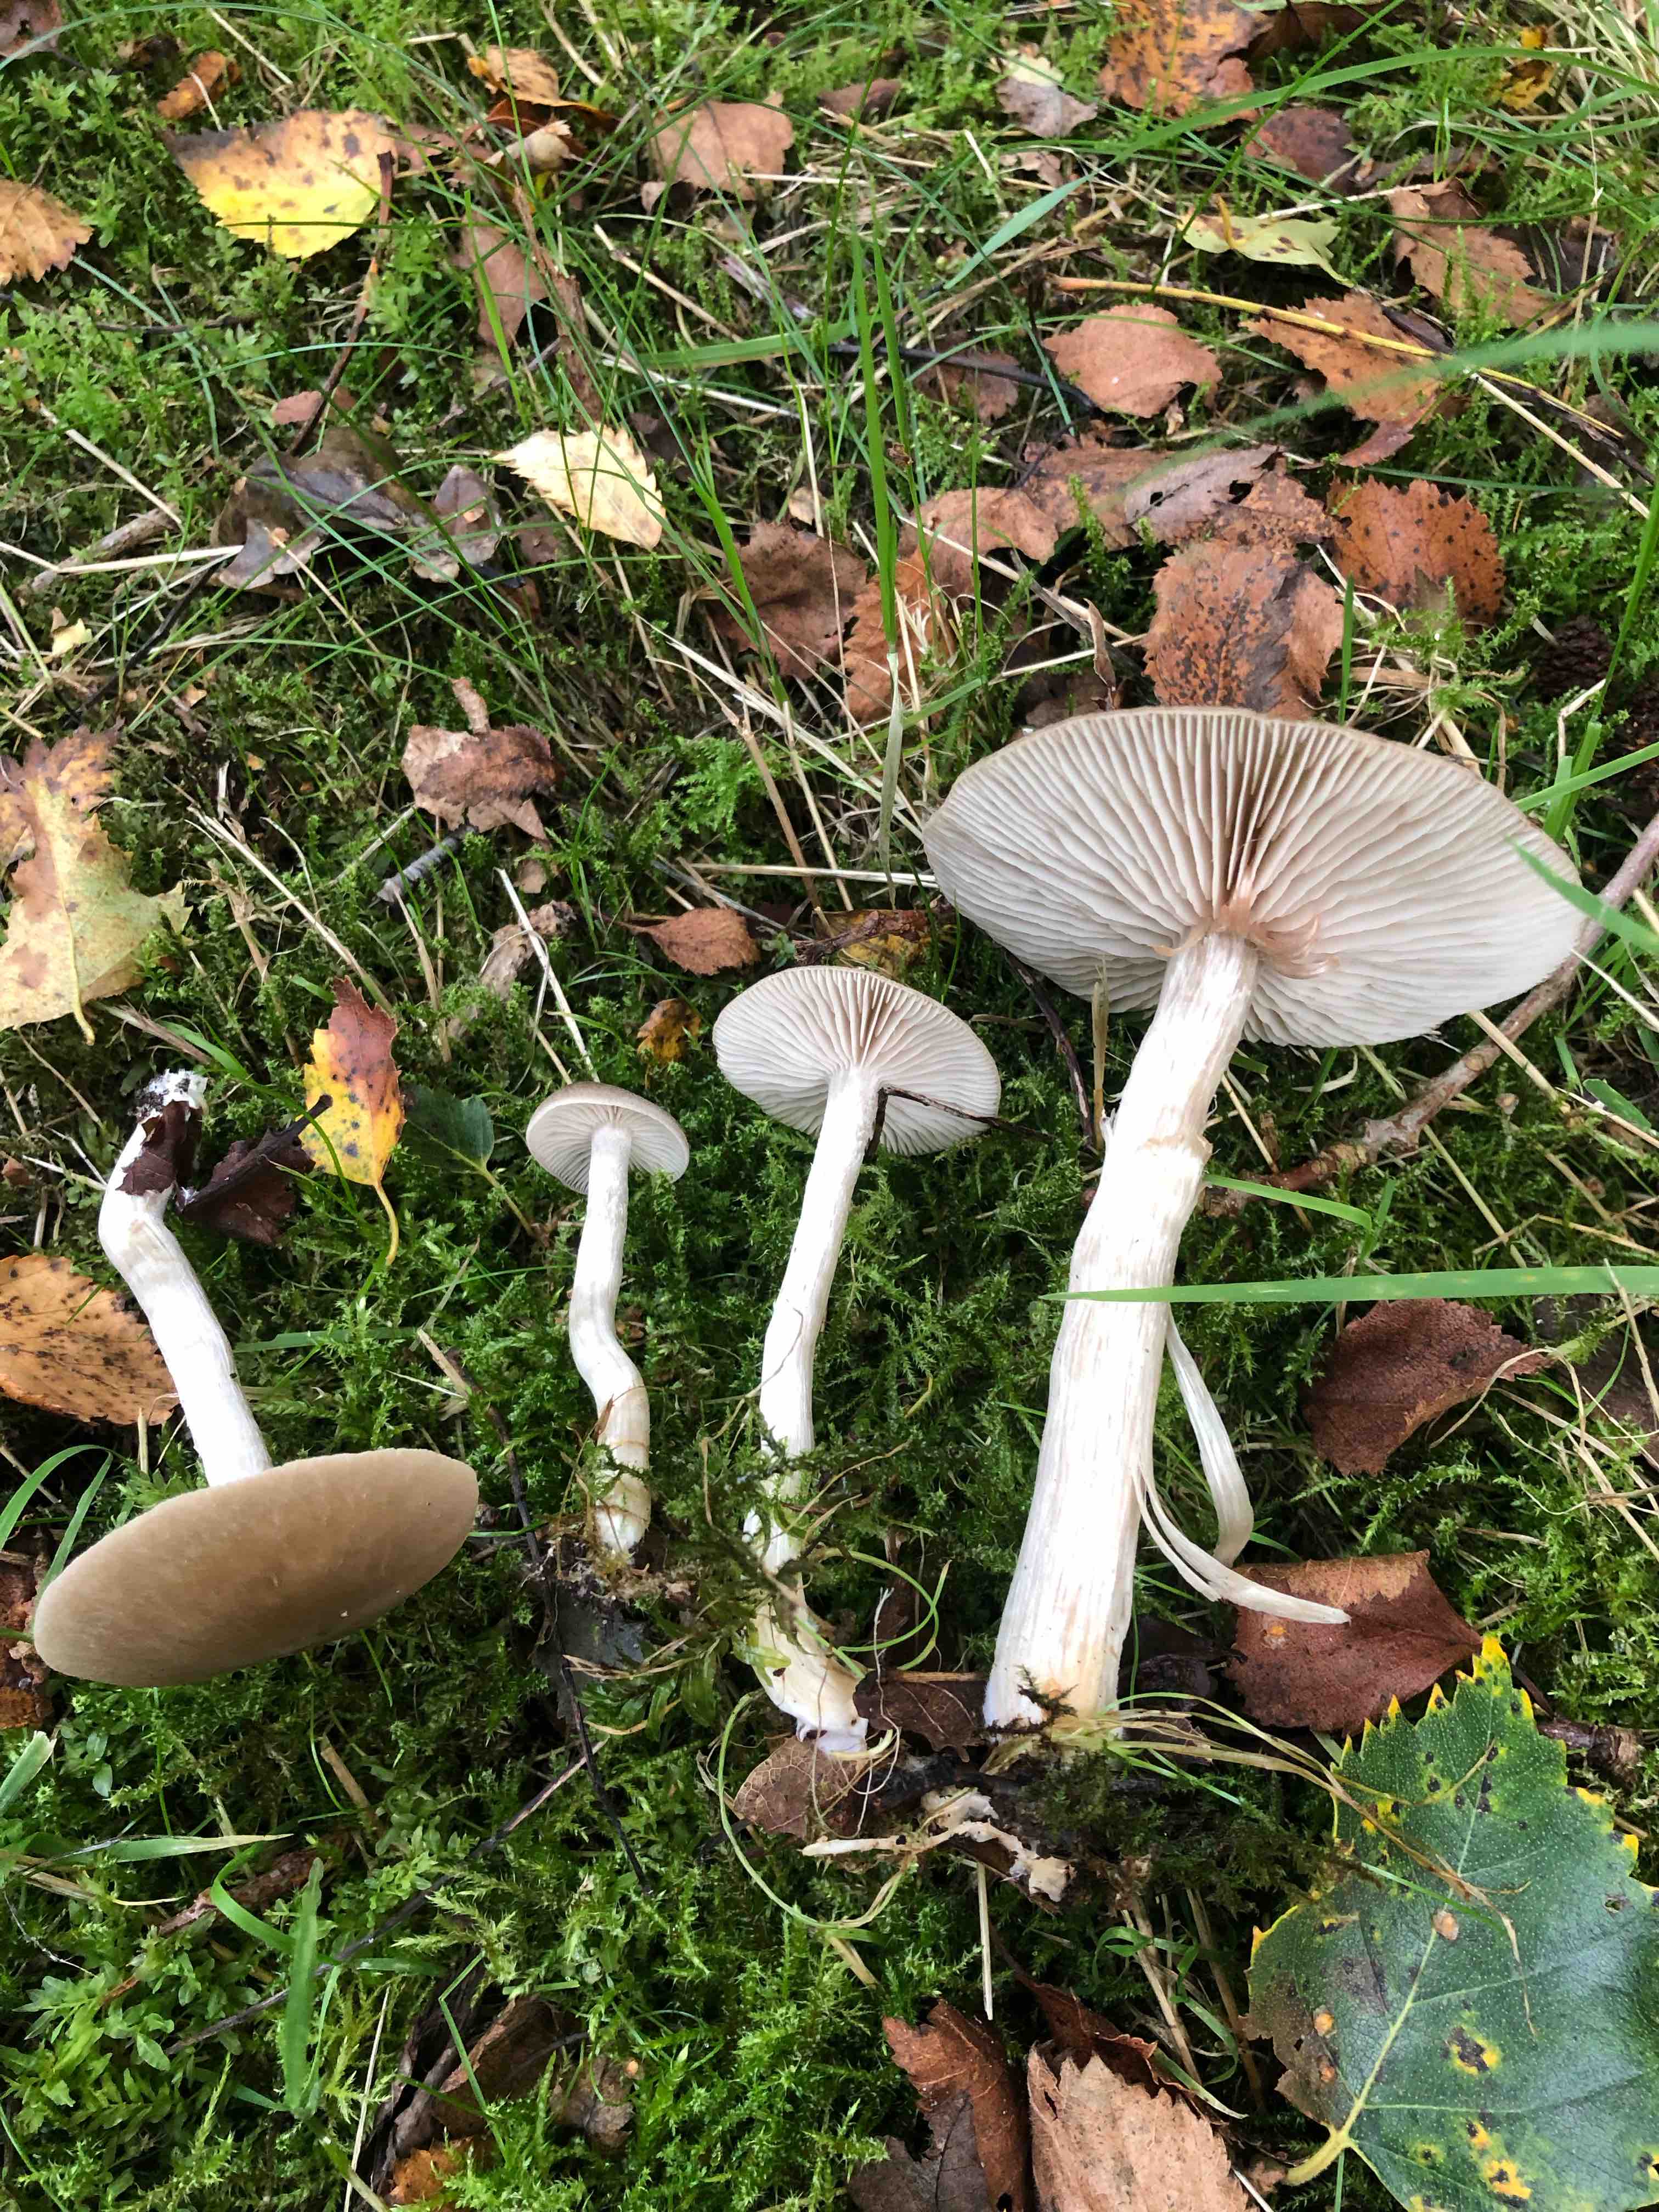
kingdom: Fungi
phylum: Basidiomycota
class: Agaricomycetes
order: Agaricales
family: Entolomataceae
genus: Entoloma
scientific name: Entoloma
